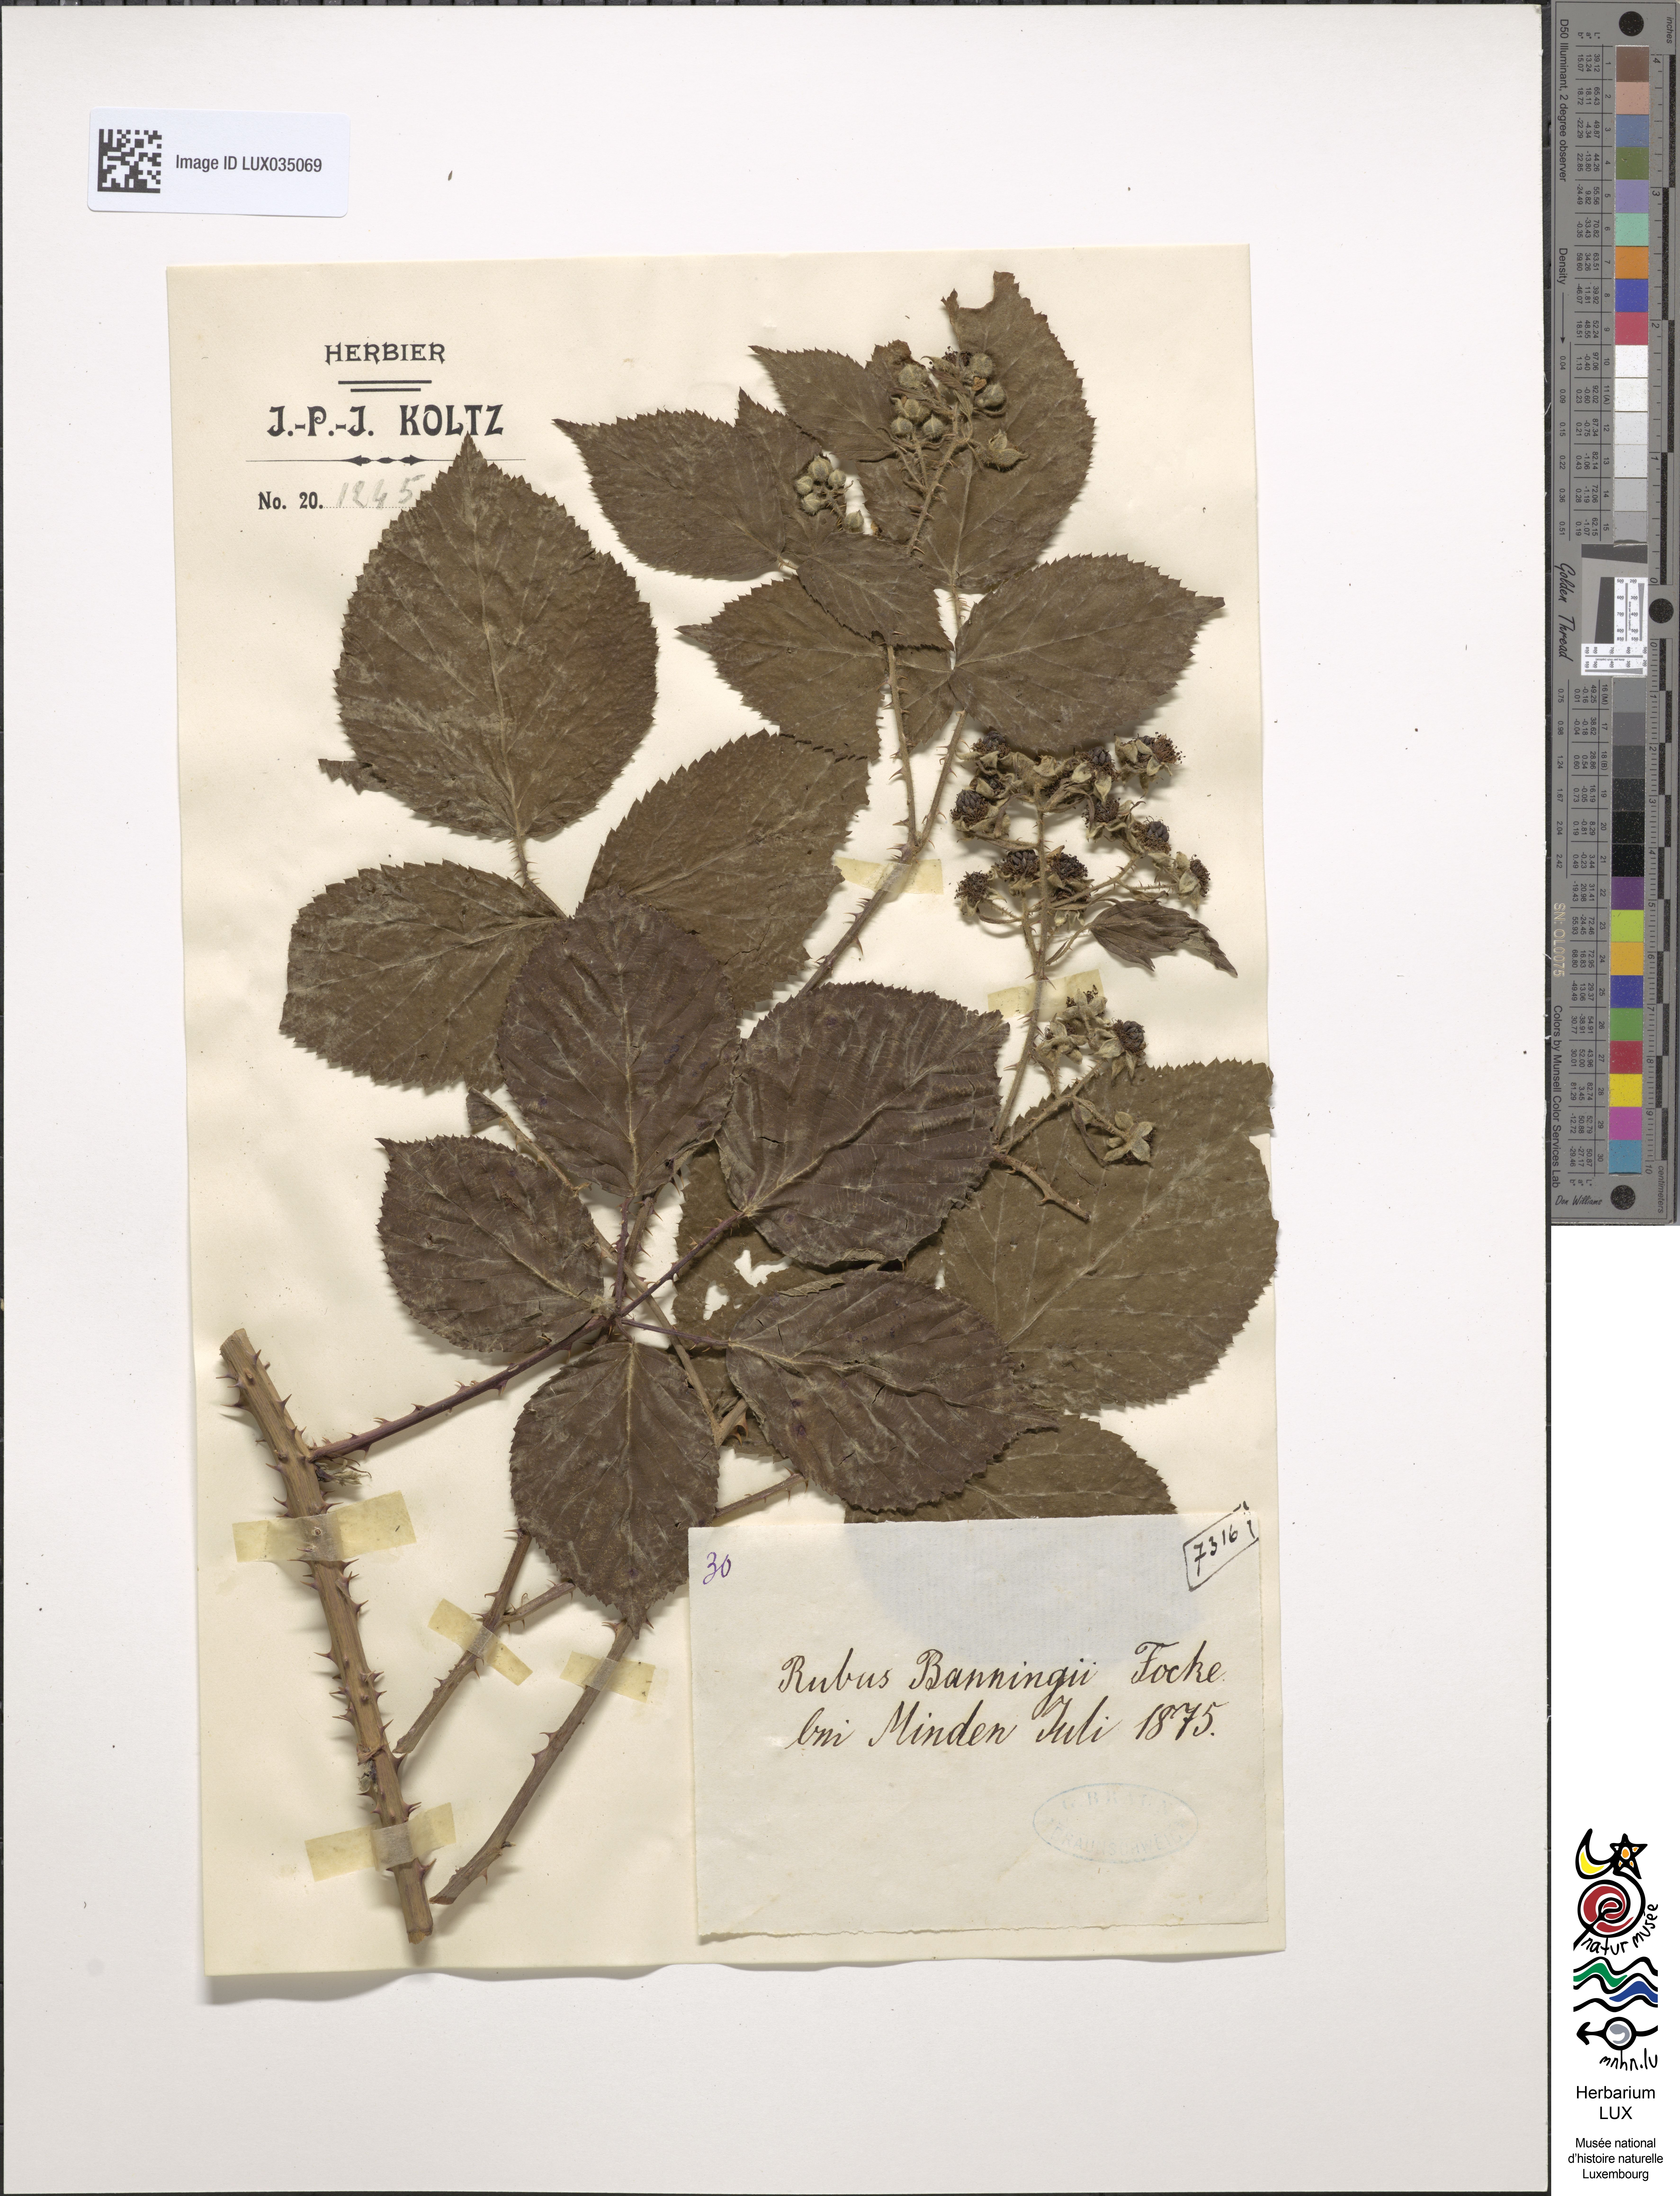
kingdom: Plantae
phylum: Tracheophyta
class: Magnoliopsida
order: Rosales
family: Rosaceae
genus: Rubus
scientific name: Rubus pyramidatus
